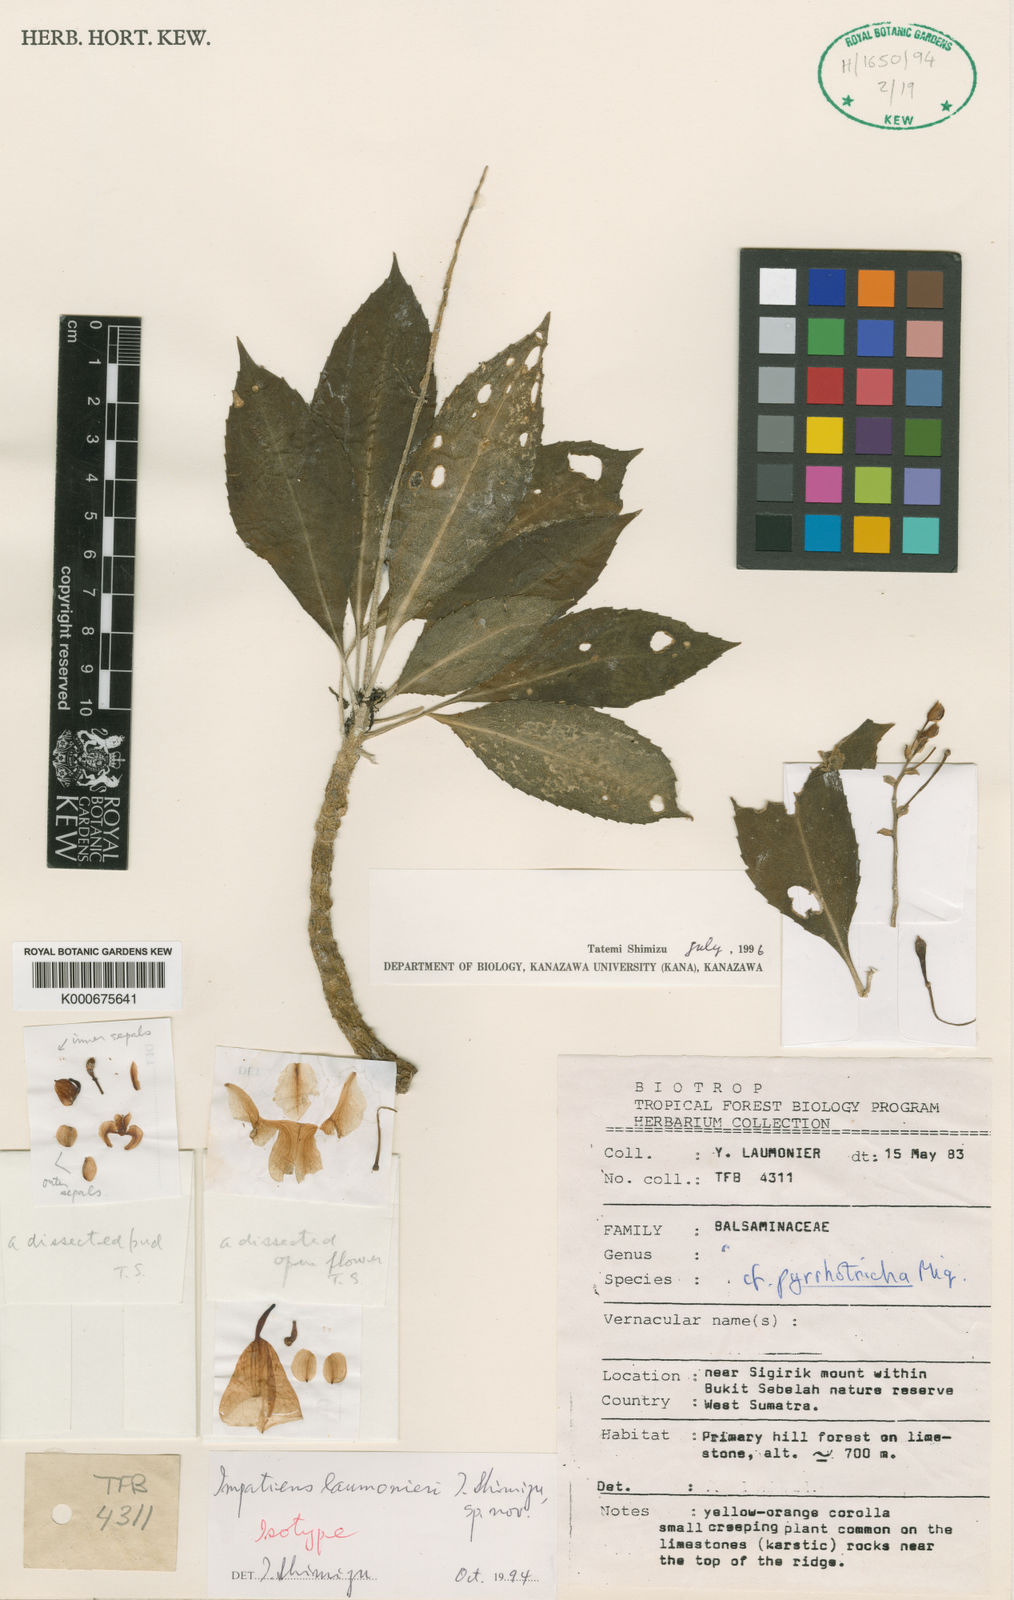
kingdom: Plantae
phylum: Tracheophyta
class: Magnoliopsida
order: Ericales
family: Balsaminaceae
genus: Impatiens
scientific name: Impatiens tribuana
